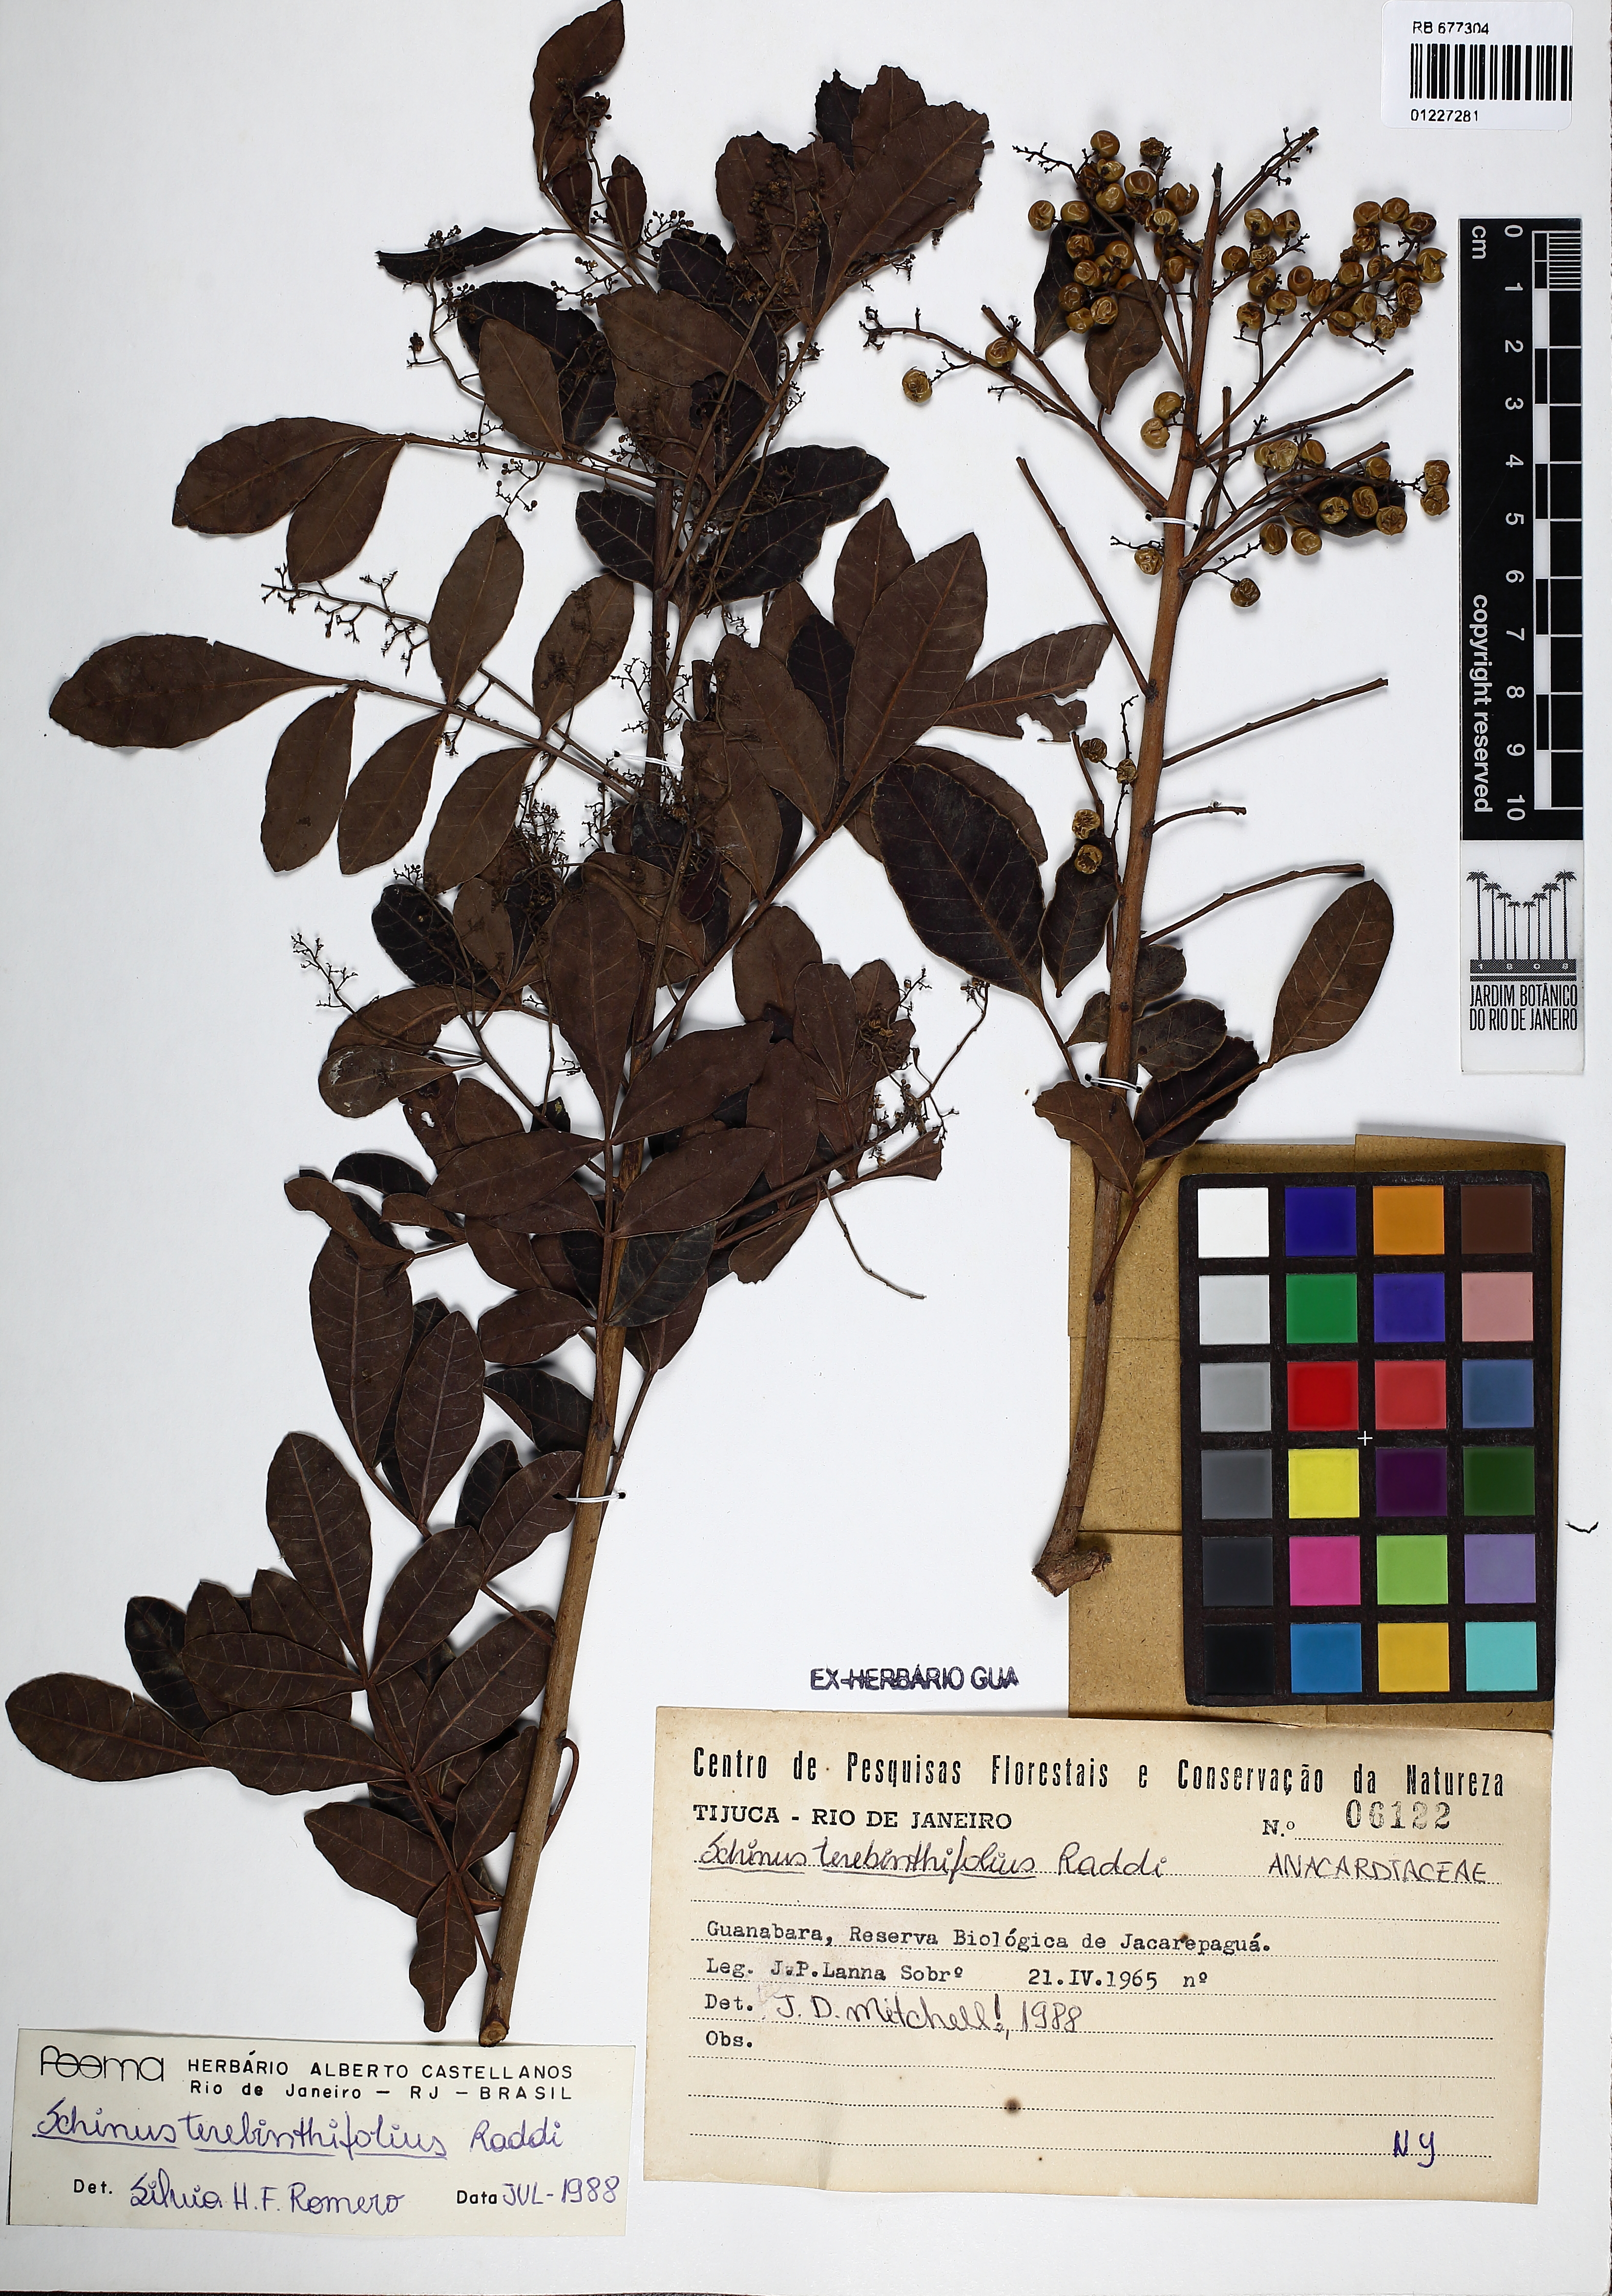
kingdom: Plantae
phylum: Tracheophyta
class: Magnoliopsida
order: Sapindales
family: Anacardiaceae
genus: Schinus
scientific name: Schinus terebinthifolia
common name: Brazilian peppertree
